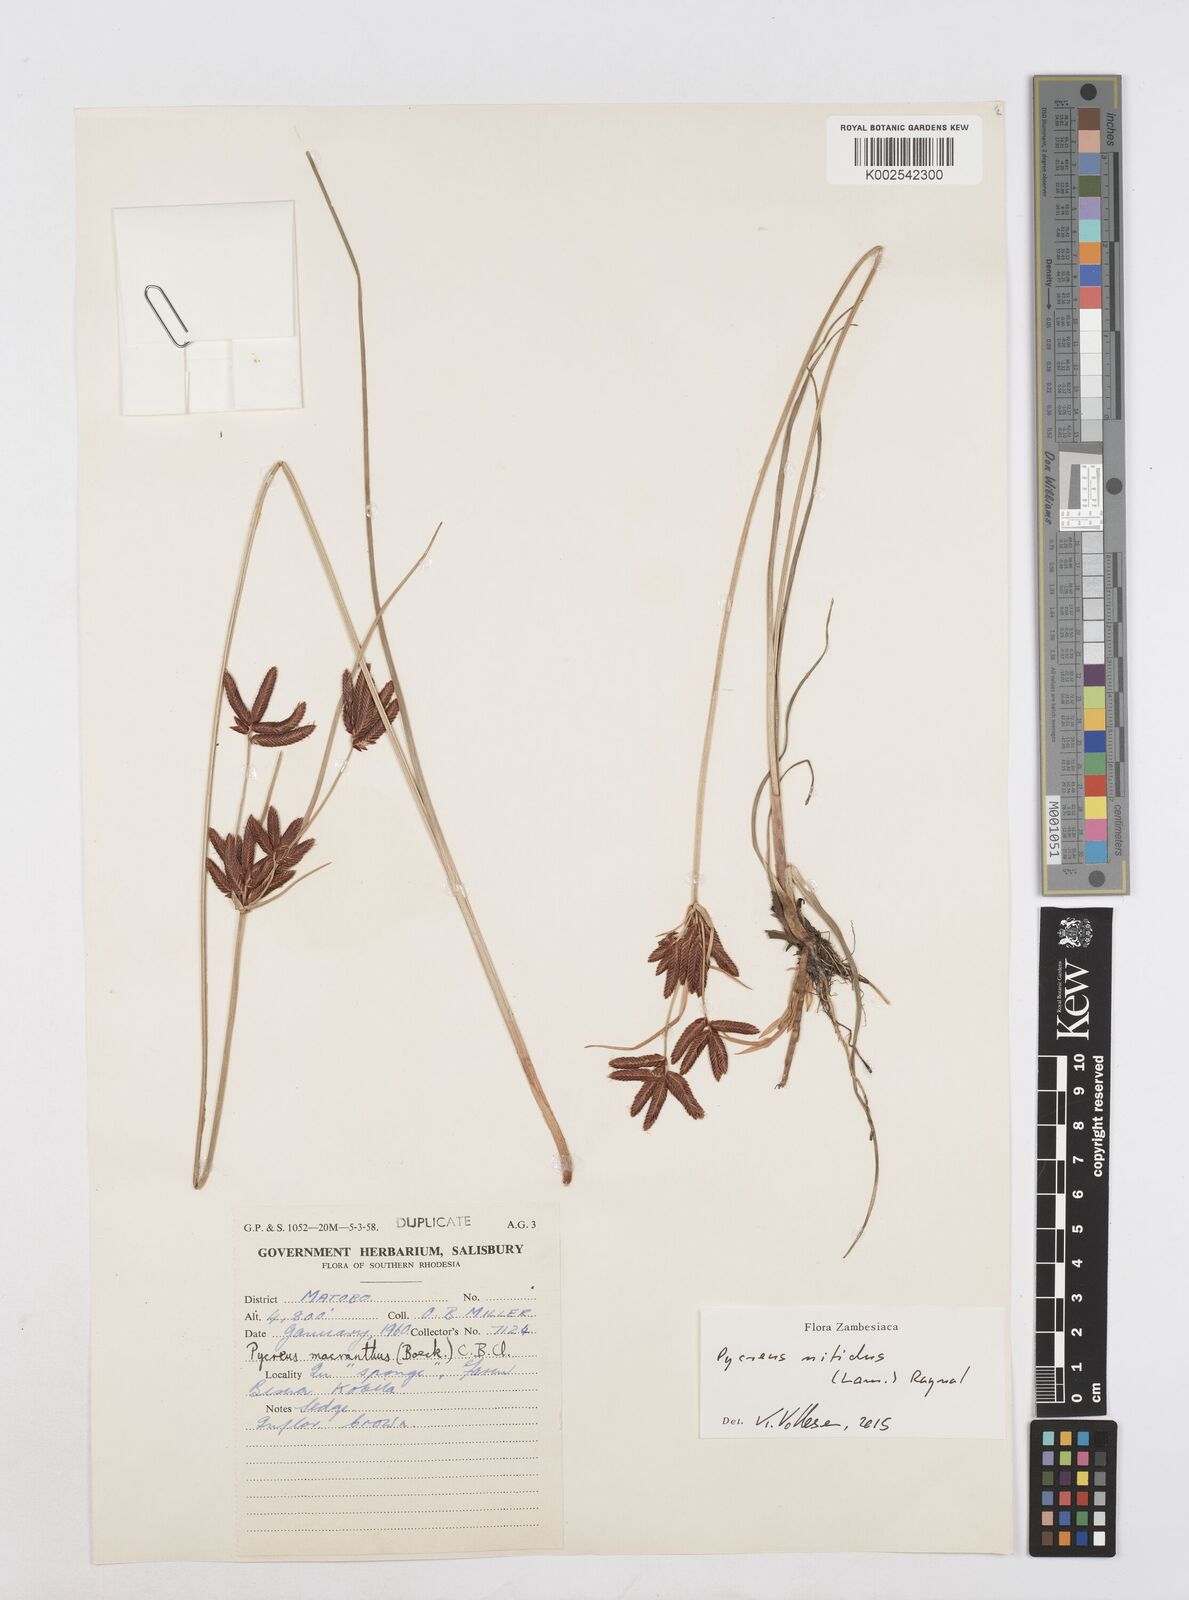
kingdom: Plantae
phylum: Tracheophyta
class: Liliopsida
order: Poales
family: Cyperaceae
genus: Cyperus
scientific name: Cyperus nitidus
